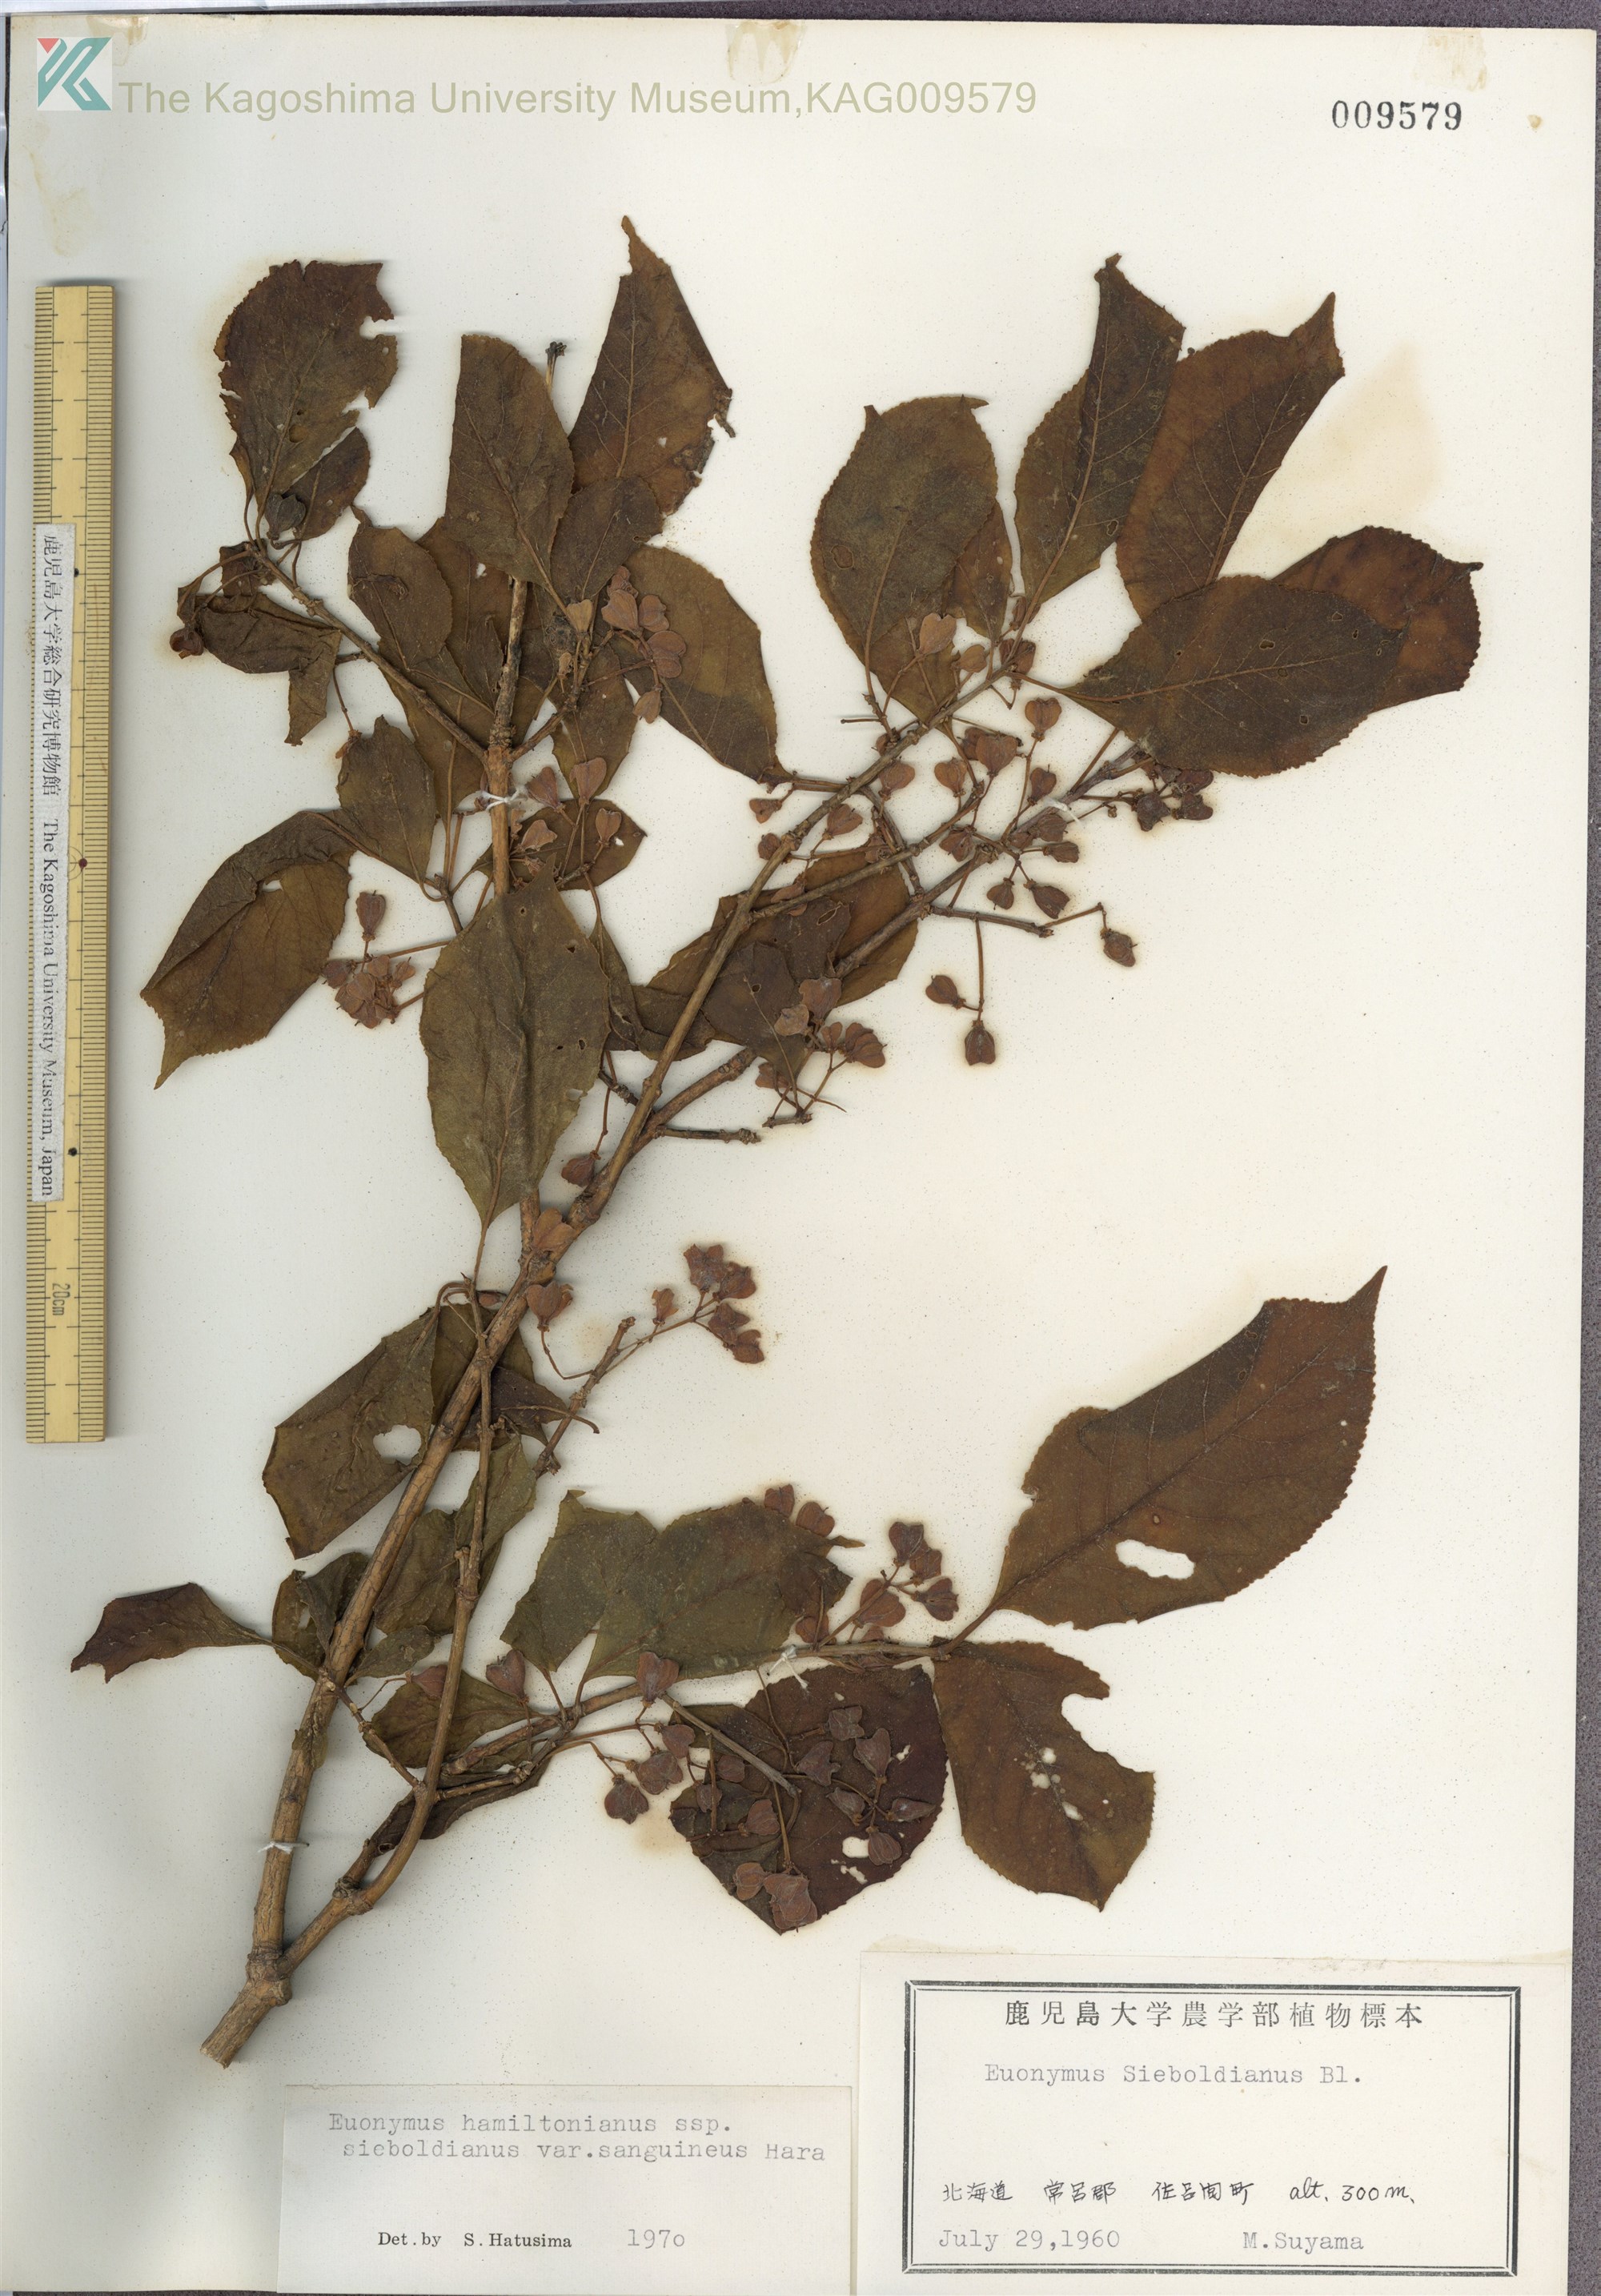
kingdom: Plantae
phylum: Tracheophyta
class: Magnoliopsida
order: Celastrales
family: Celastraceae
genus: Euonymus
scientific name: Euonymus hamiltonianus
